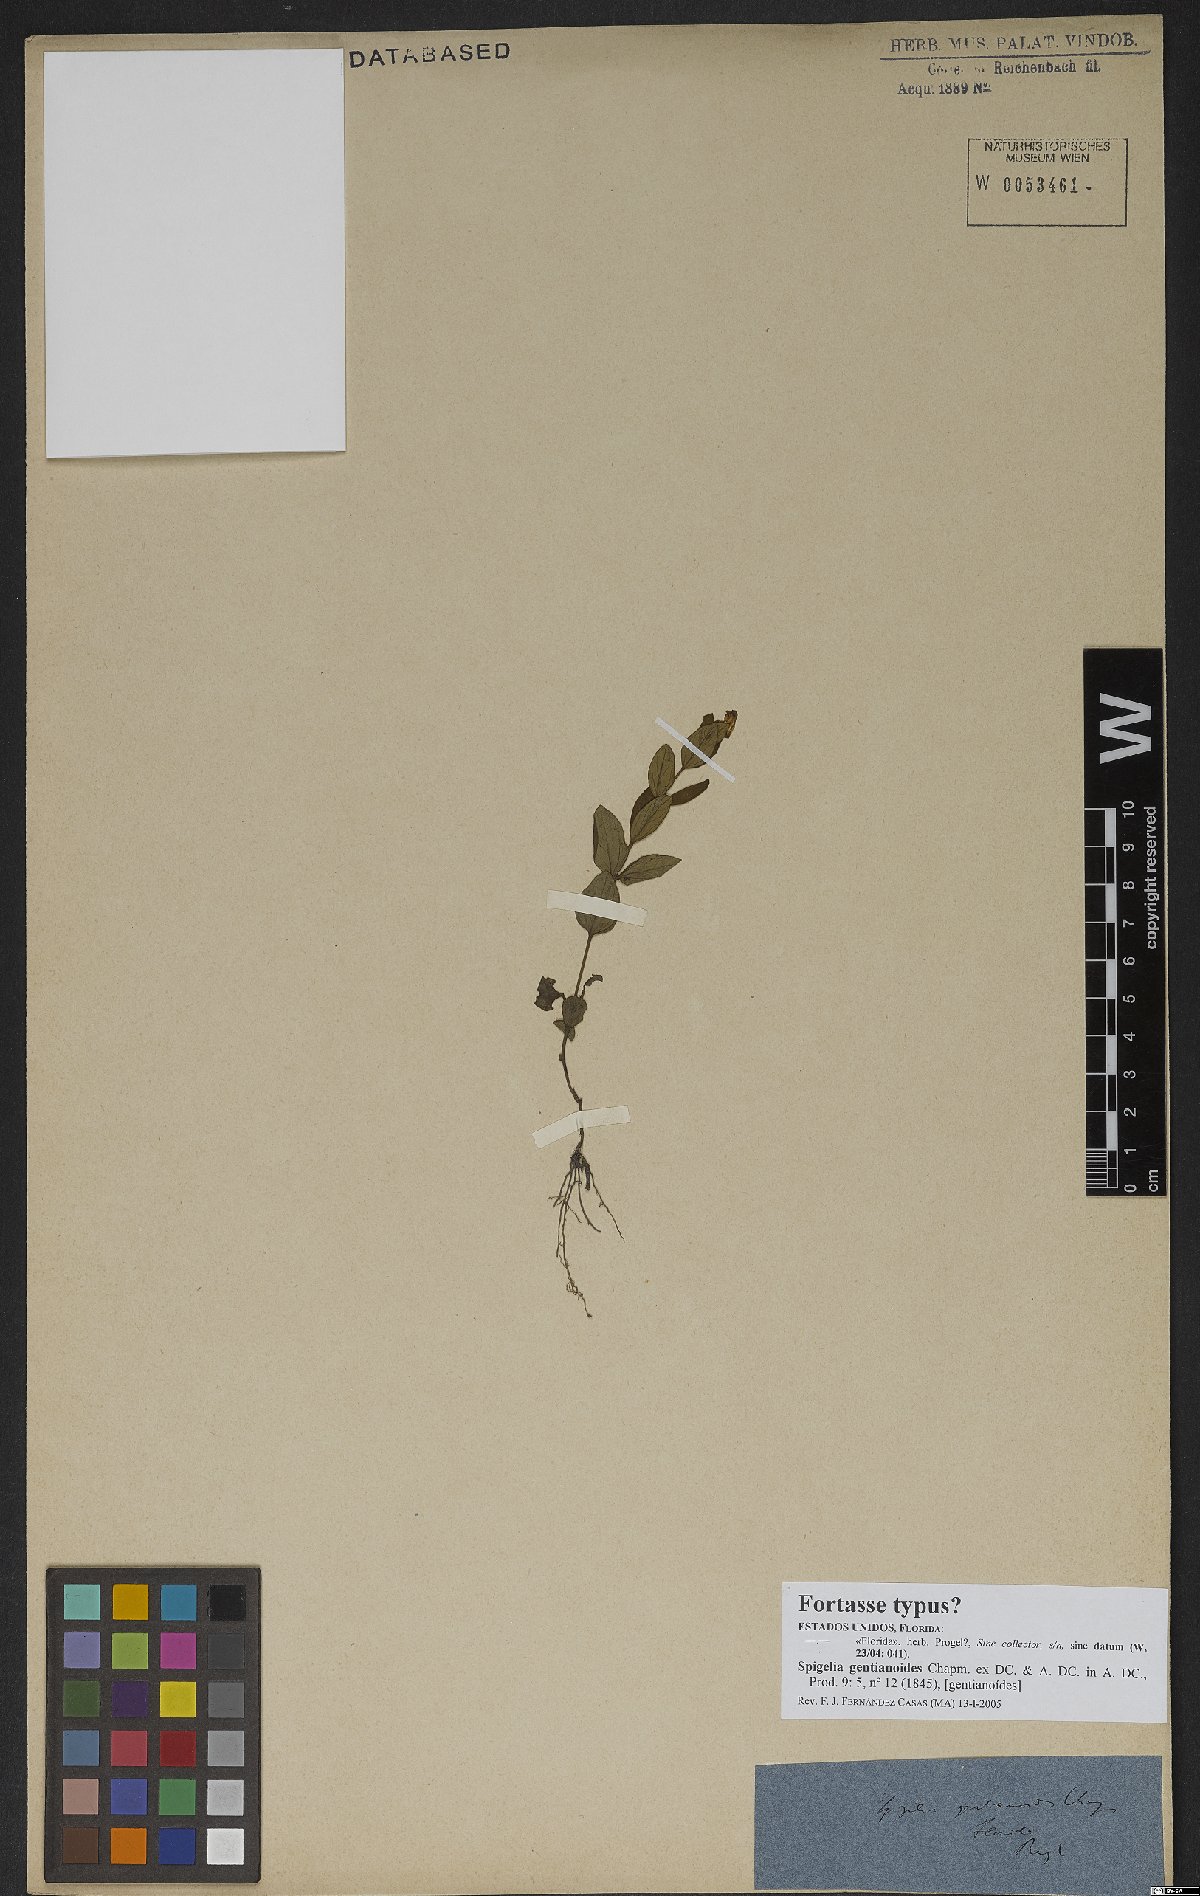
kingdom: Plantae
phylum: Tracheophyta
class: Magnoliopsida
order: Gentianales
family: Loganiaceae
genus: Spigelia
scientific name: Spigelia gentianoides
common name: Gentian pinkroot
